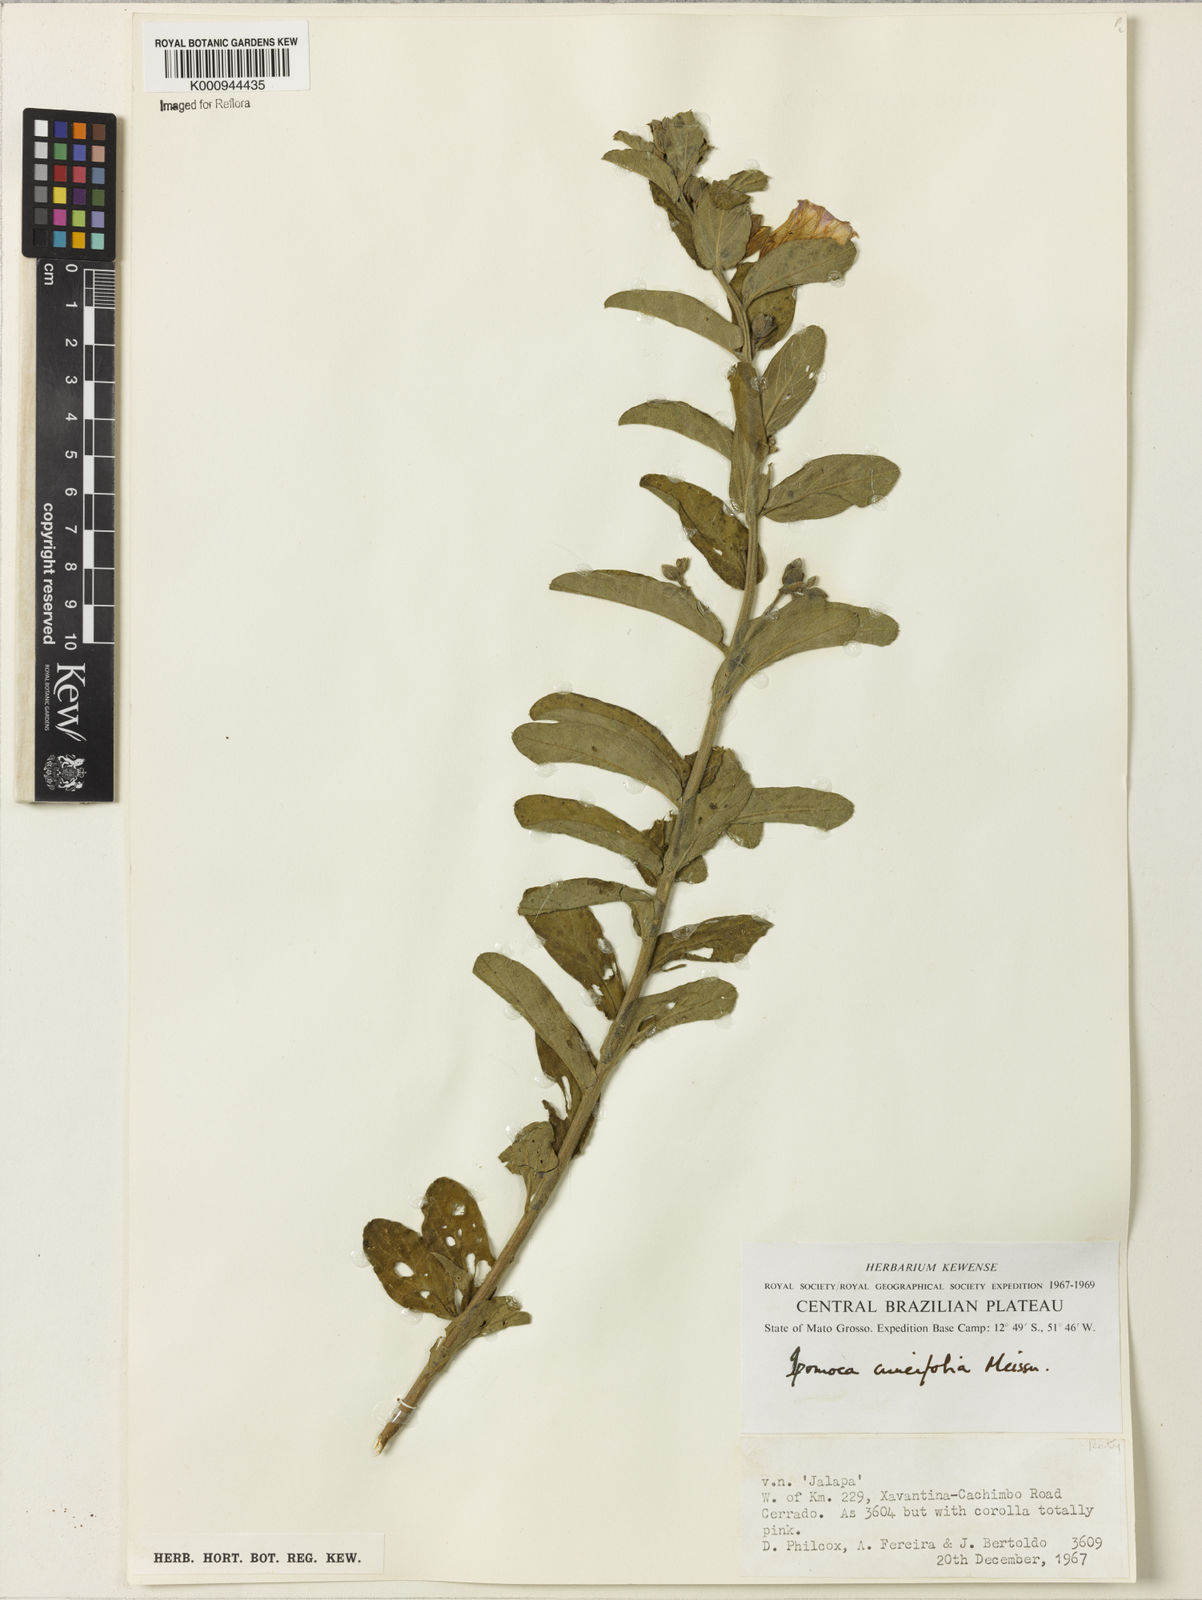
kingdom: Plantae
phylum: Tracheophyta
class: Magnoliopsida
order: Solanales
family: Convolvulaceae
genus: Ipomoea
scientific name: Ipomoea cuneifolia
